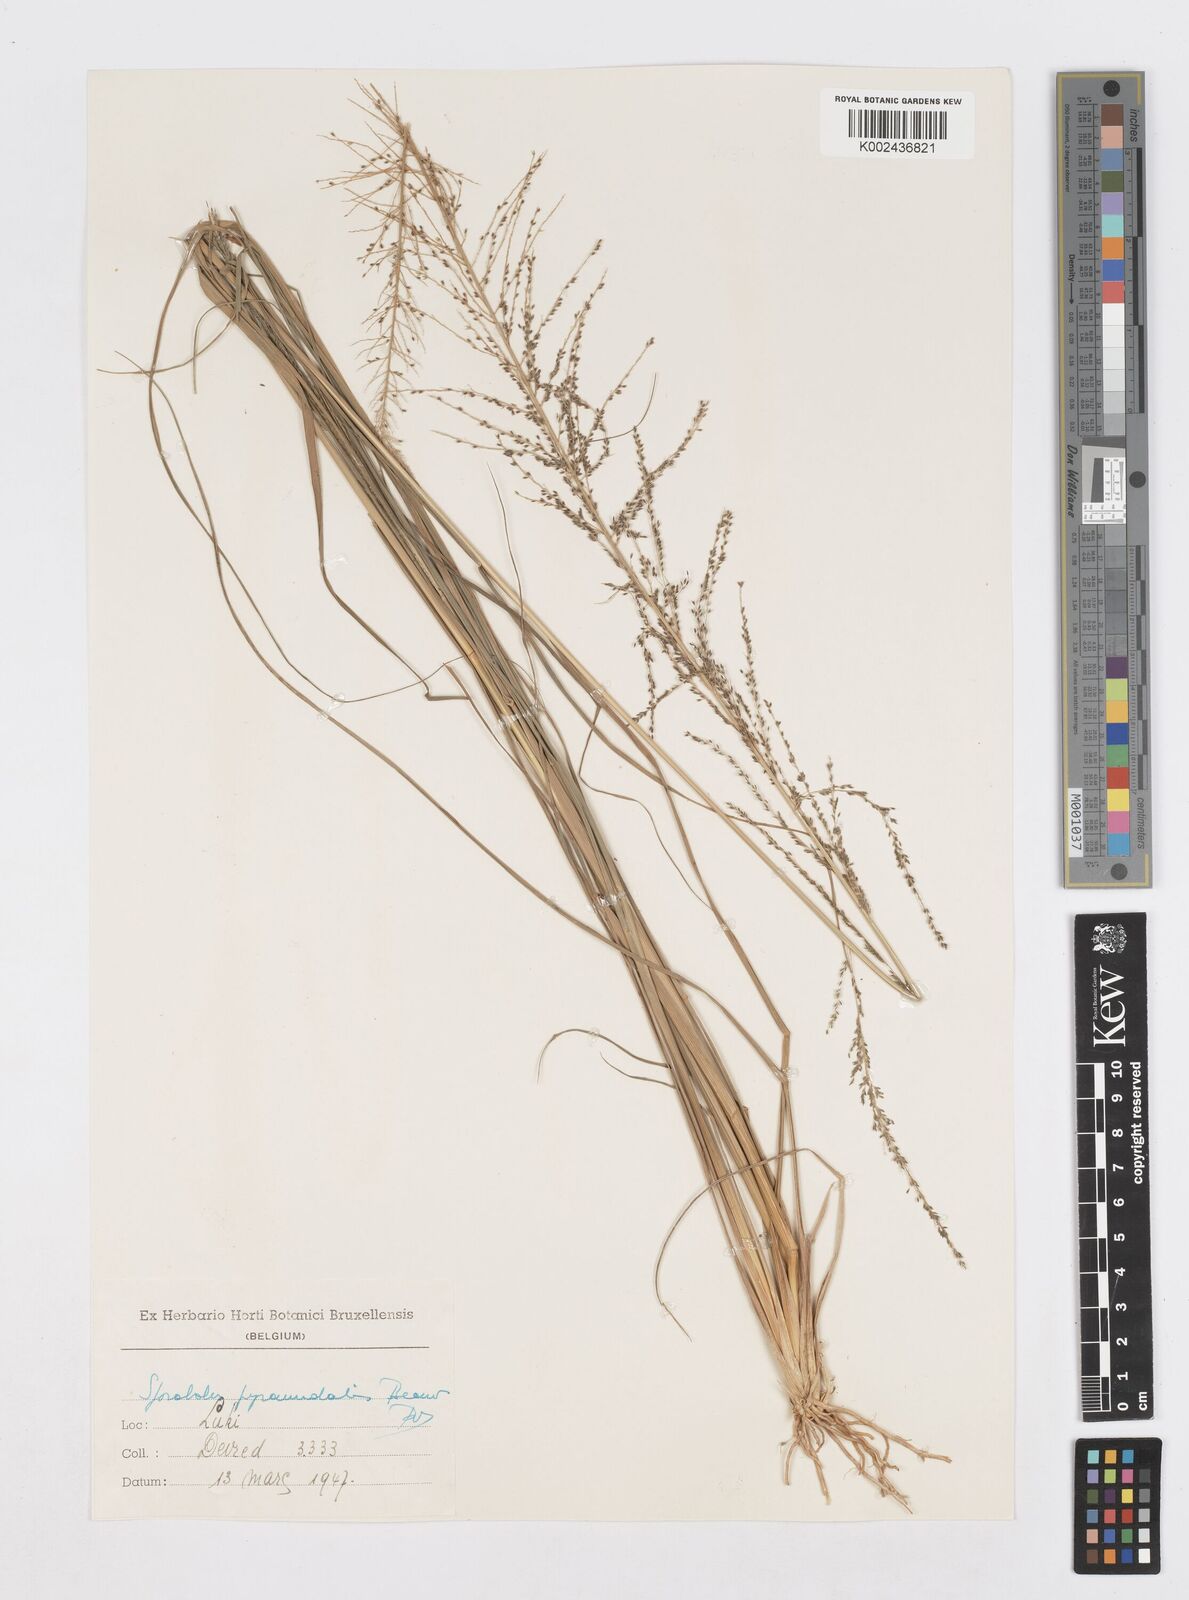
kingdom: Plantae
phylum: Tracheophyta
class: Liliopsida
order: Poales
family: Poaceae
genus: Sporobolus
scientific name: Sporobolus pyramidalis
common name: West indian dropseed
